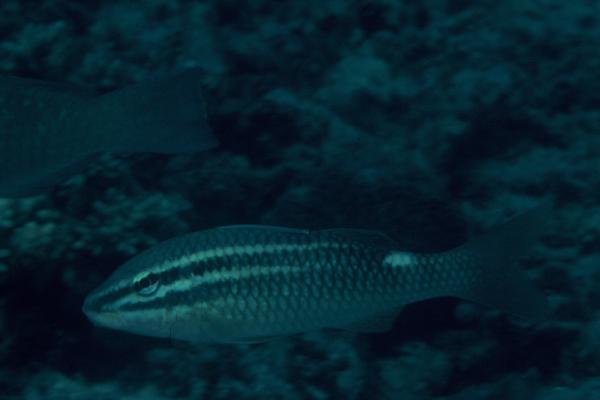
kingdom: Animalia
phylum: Chordata
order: Perciformes
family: Mullidae
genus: Parupeneus
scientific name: Parupeneus rubescens
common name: Rosy goatfish
